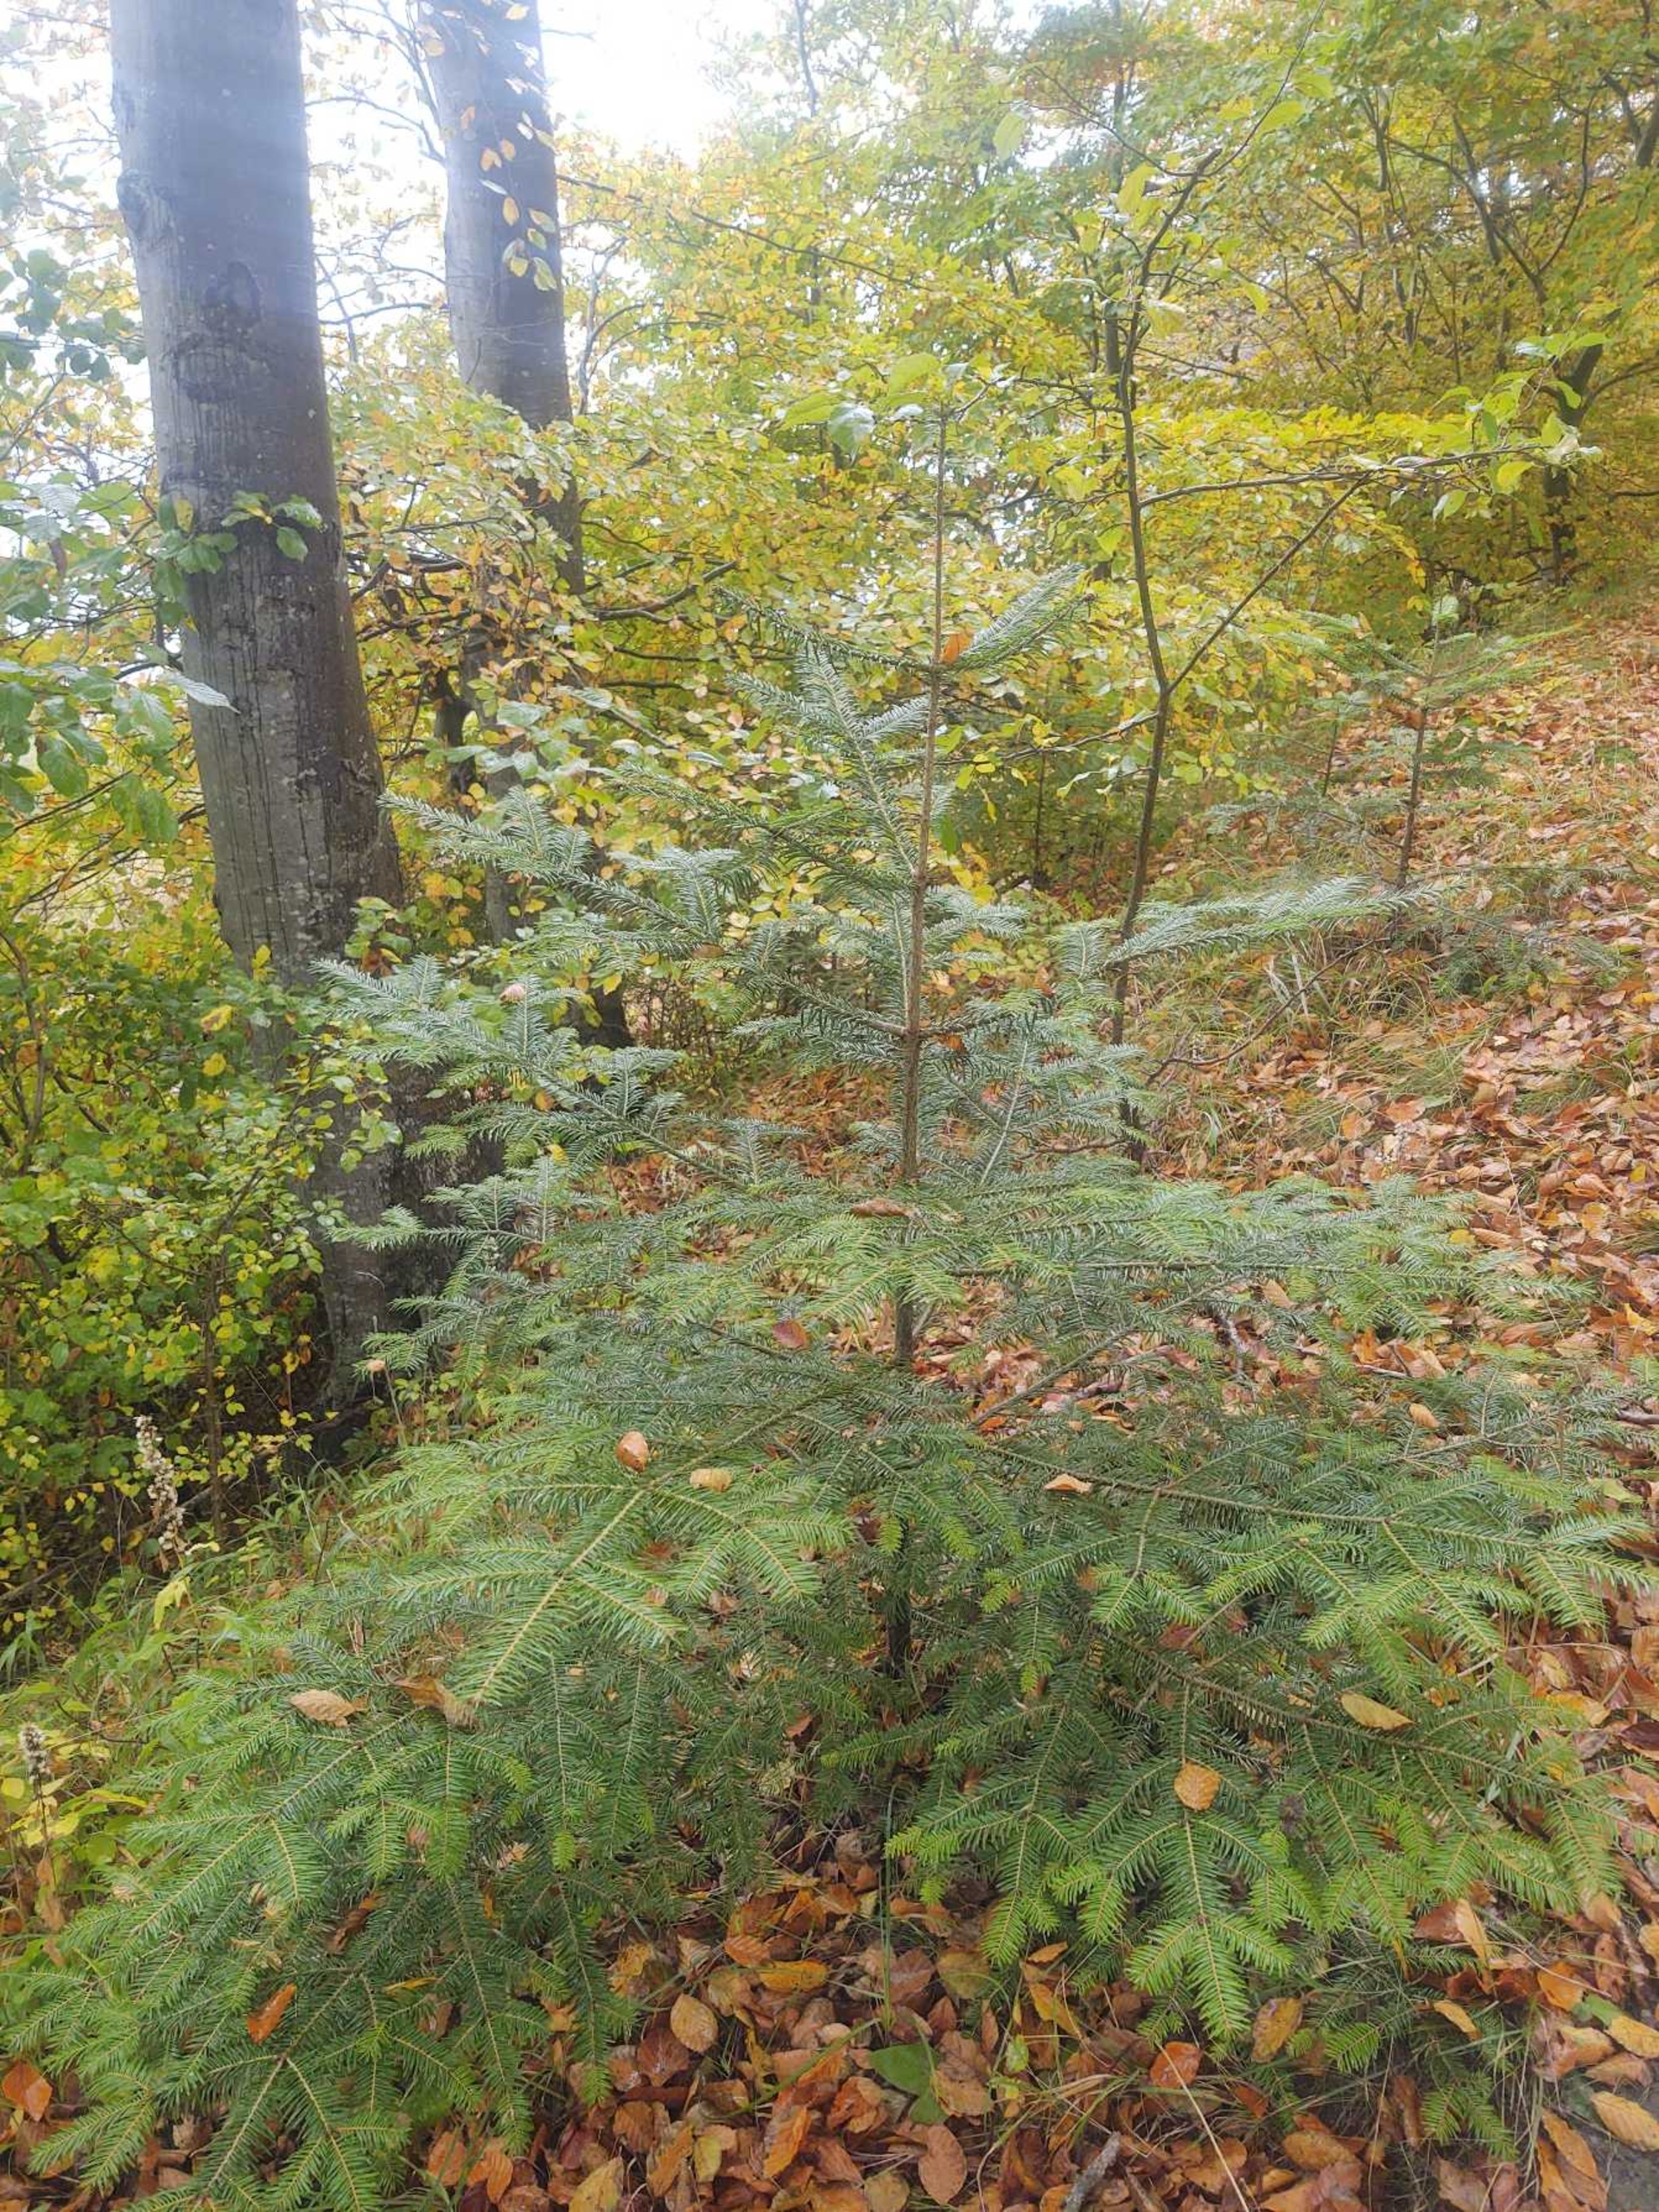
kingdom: Plantae
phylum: Tracheophyta
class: Pinopsida
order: Pinales
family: Pinaceae
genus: Abies
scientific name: Abies alba
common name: Almindelig ædelgran
